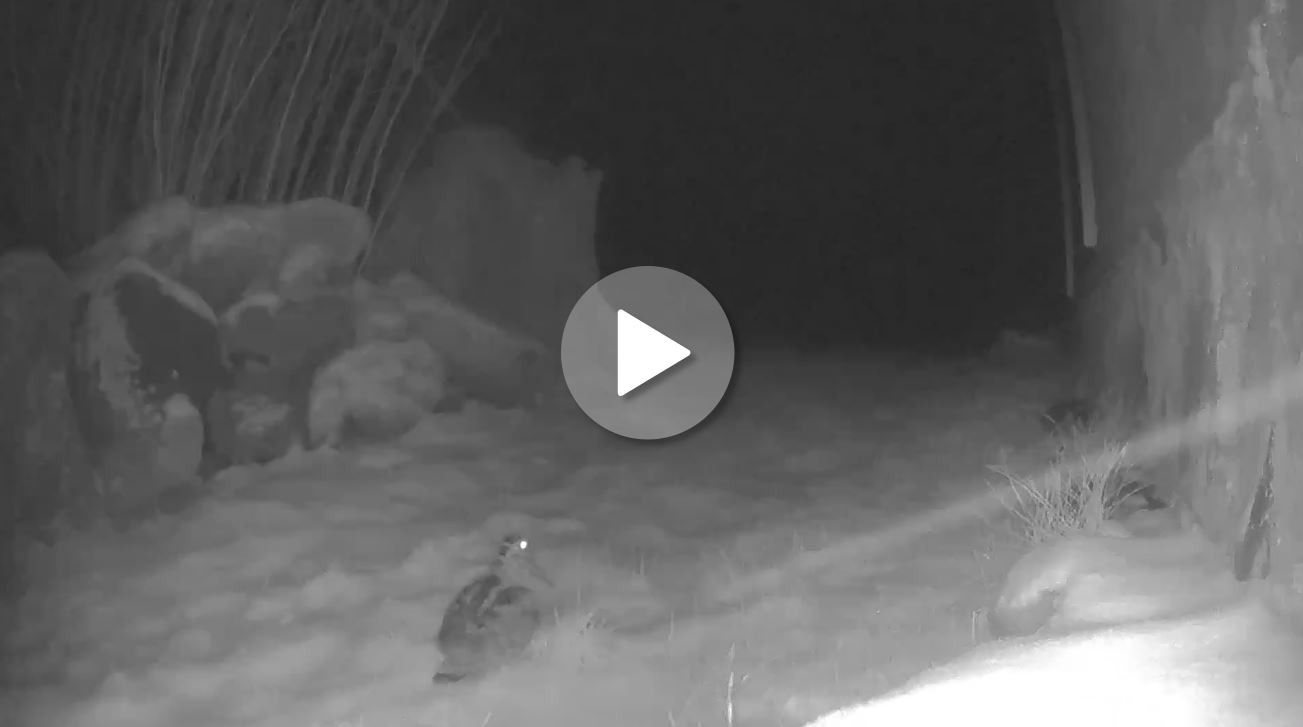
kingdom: Animalia
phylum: Chordata
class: Aves
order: Charadriiformes
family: Scolopacidae
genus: Scolopax
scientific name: Scolopax rusticola
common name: Skovsneppe
